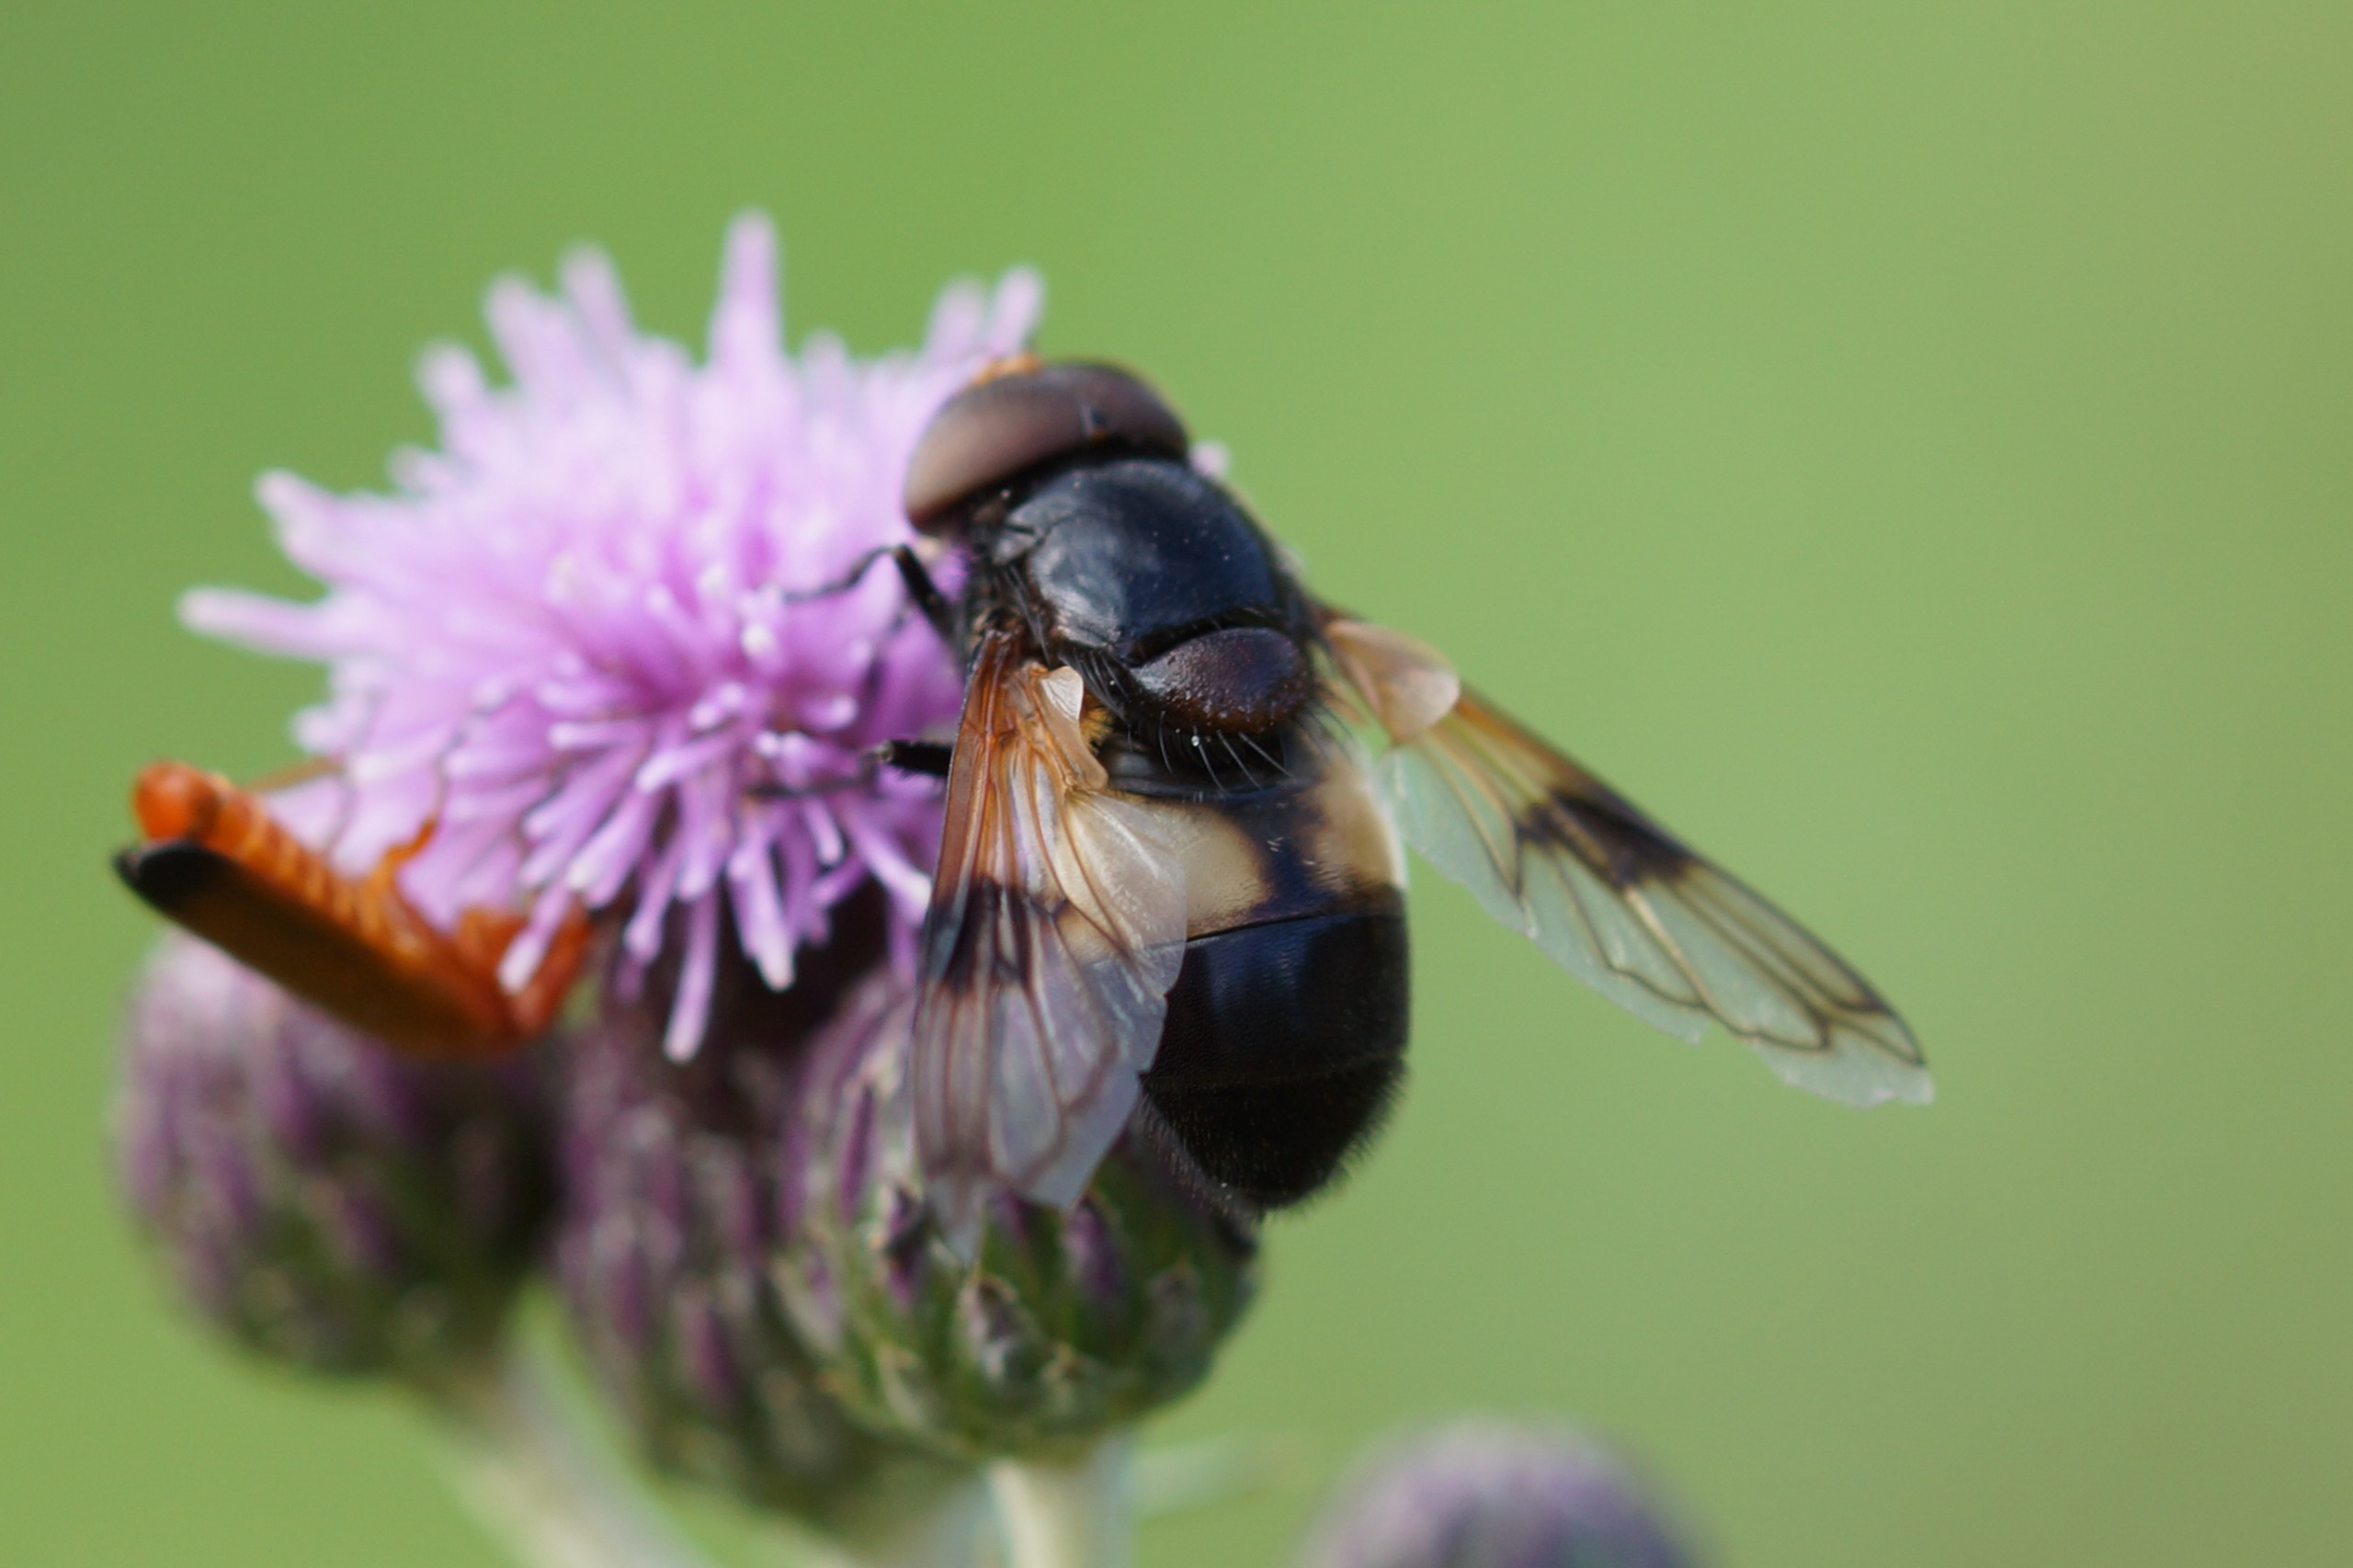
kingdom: Animalia
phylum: Arthropoda
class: Insecta
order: Diptera
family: Syrphidae
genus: Volucella
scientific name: Volucella pellucens
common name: Hvidbåndet humlesvirreflue
